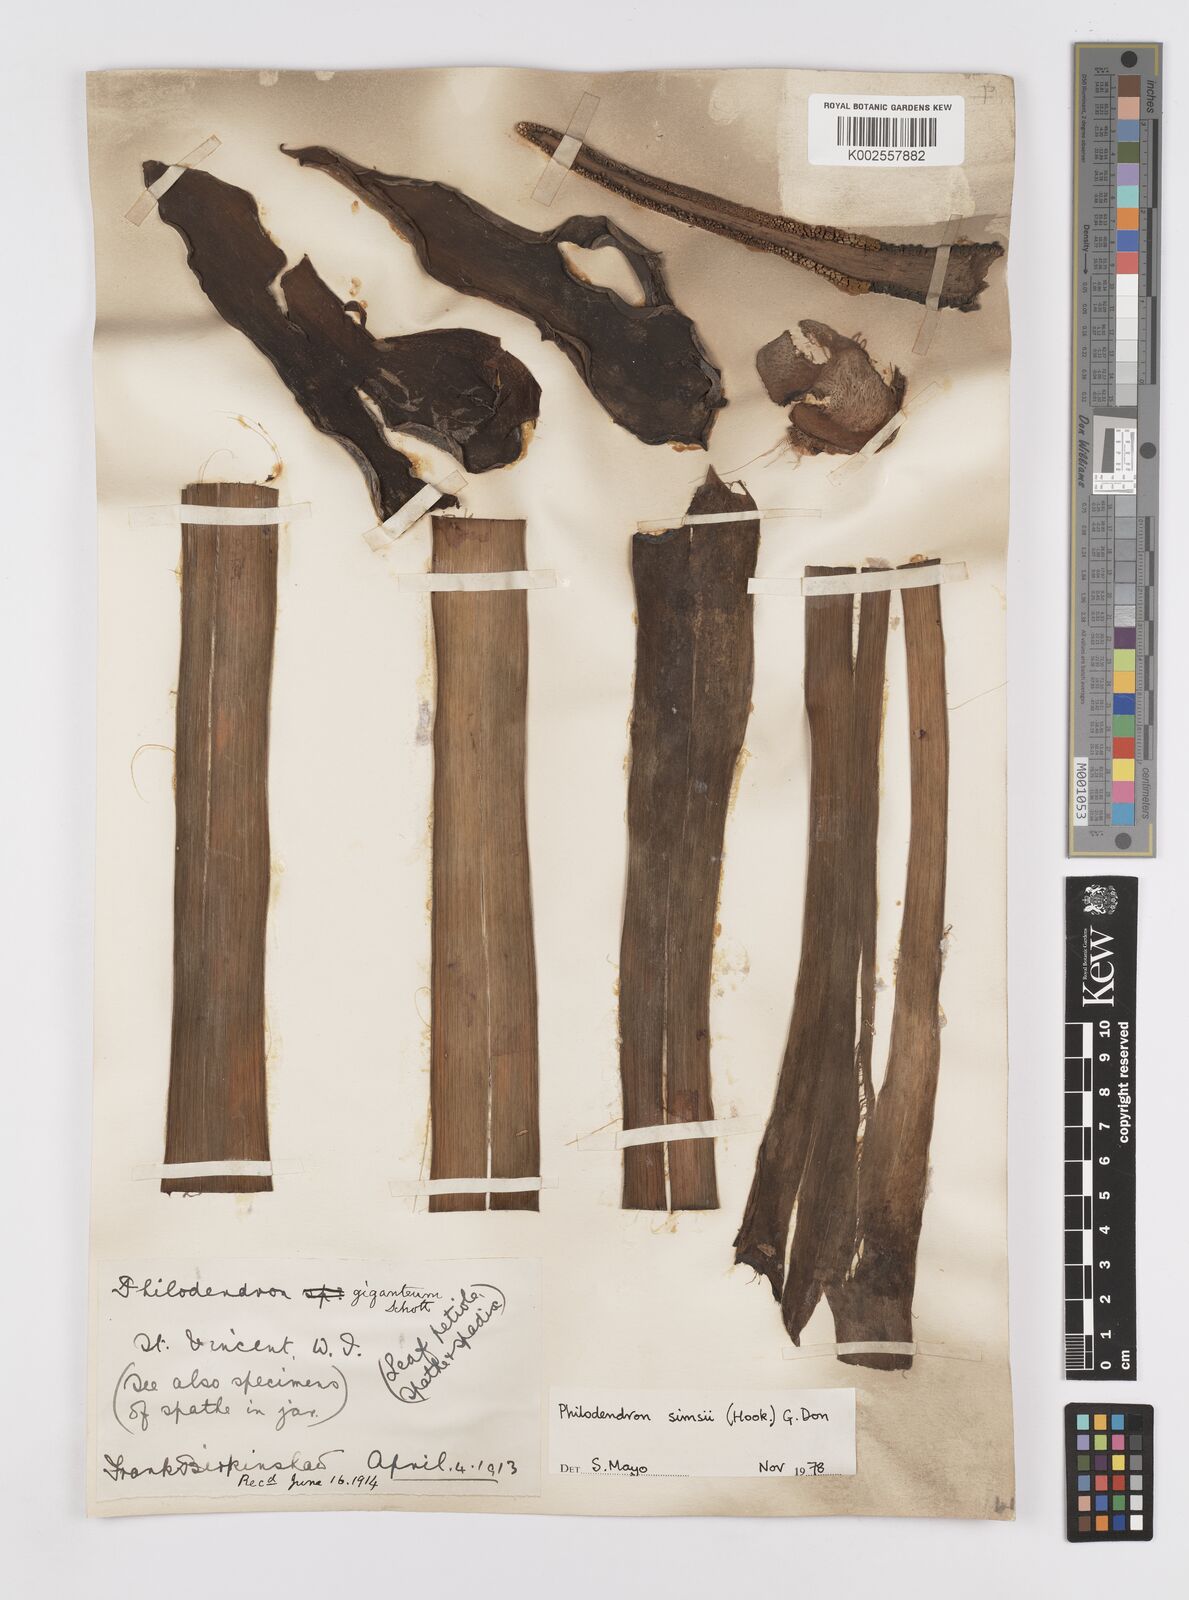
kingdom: Plantae
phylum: Tracheophyta
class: Liliopsida
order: Alismatales
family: Araceae
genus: Philodendron
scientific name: Philodendron
